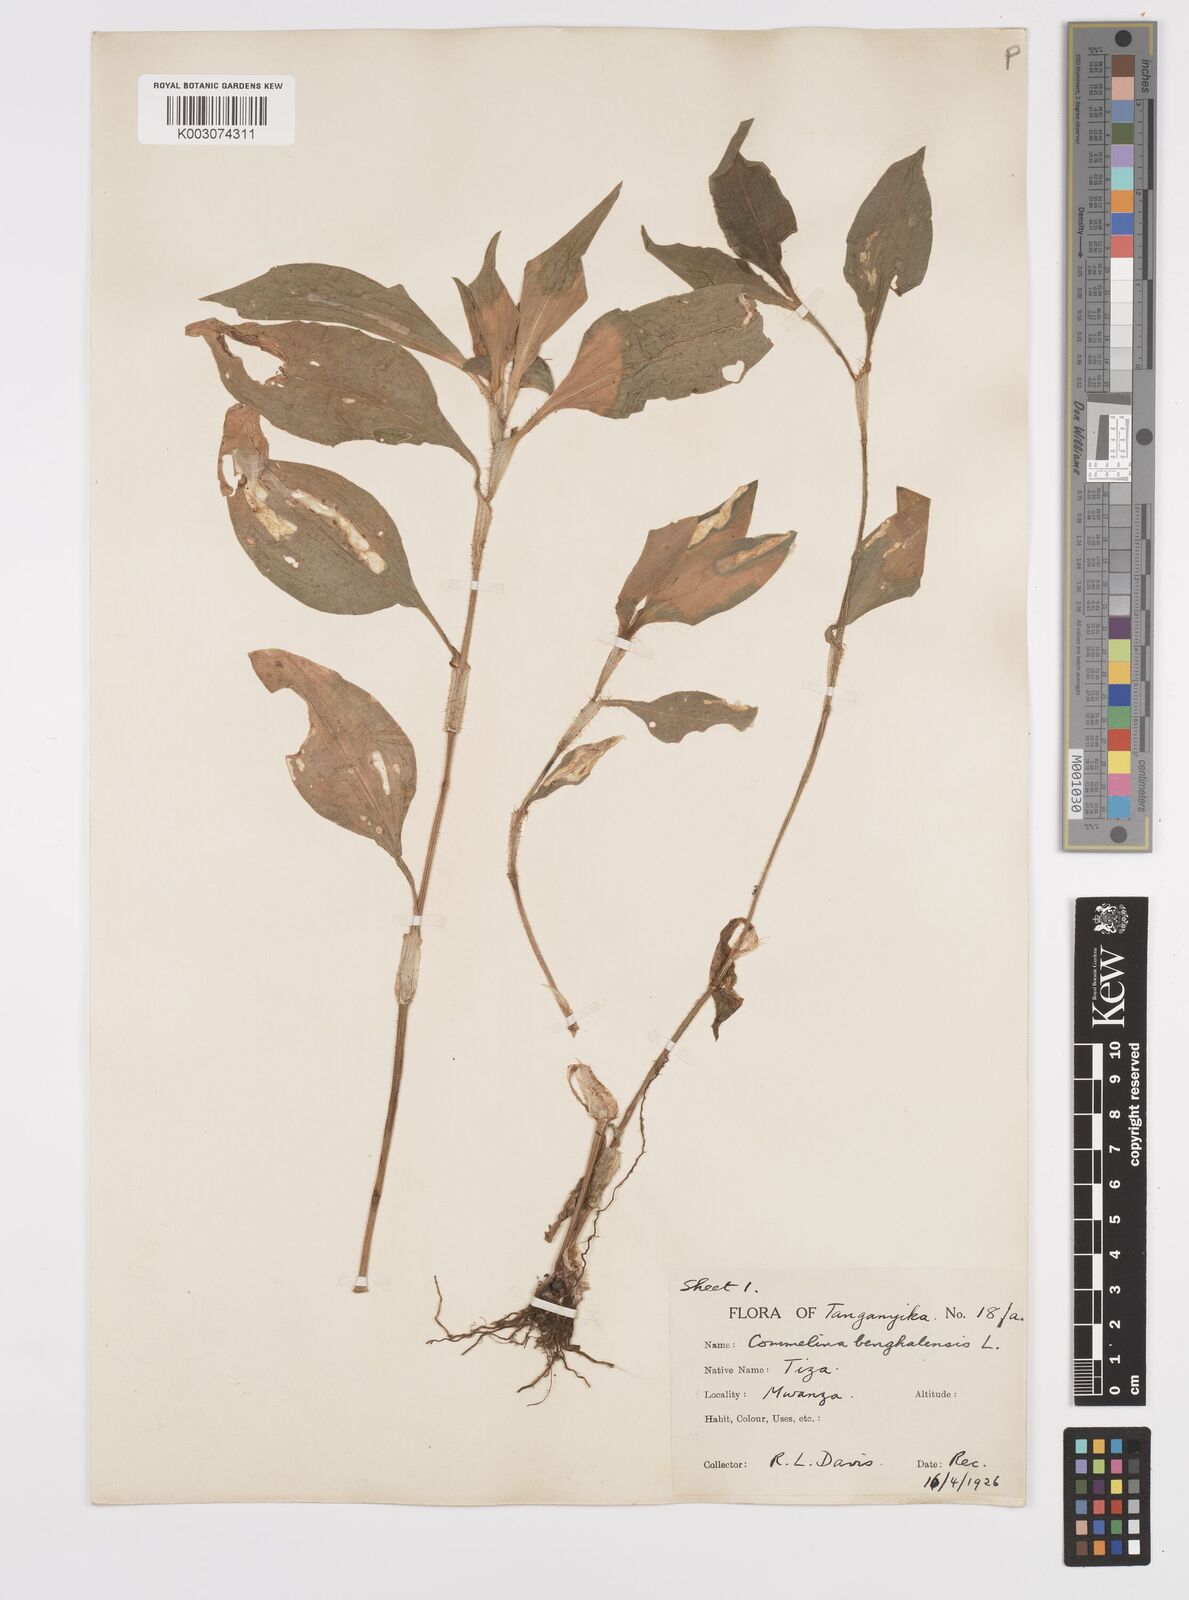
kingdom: Plantae
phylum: Tracheophyta
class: Liliopsida
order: Commelinales
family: Commelinaceae
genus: Commelina
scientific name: Commelina benghalensis
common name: Jio
